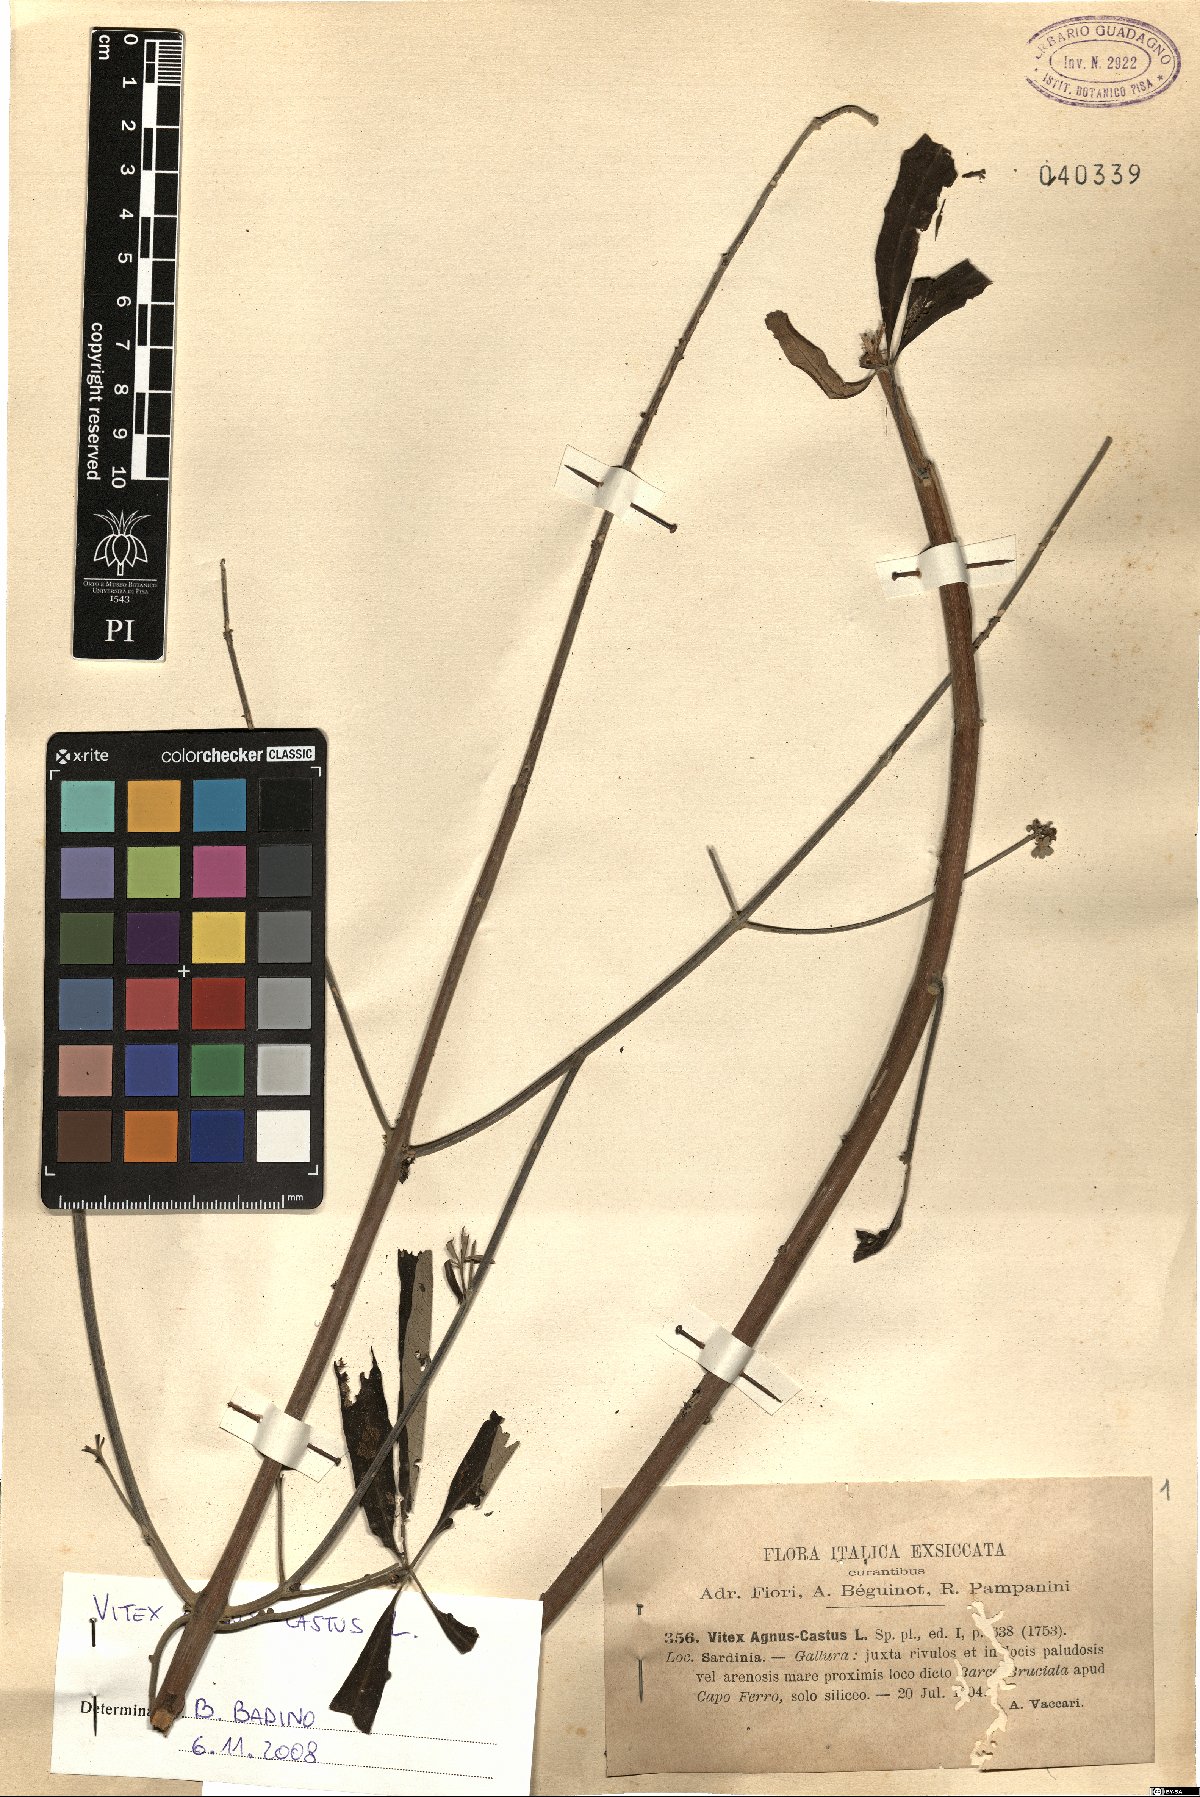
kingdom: Plantae
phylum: Tracheophyta
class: Magnoliopsida
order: Lamiales
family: Lamiaceae
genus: Vitex
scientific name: Vitex agnus-castus
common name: Chasteberry
